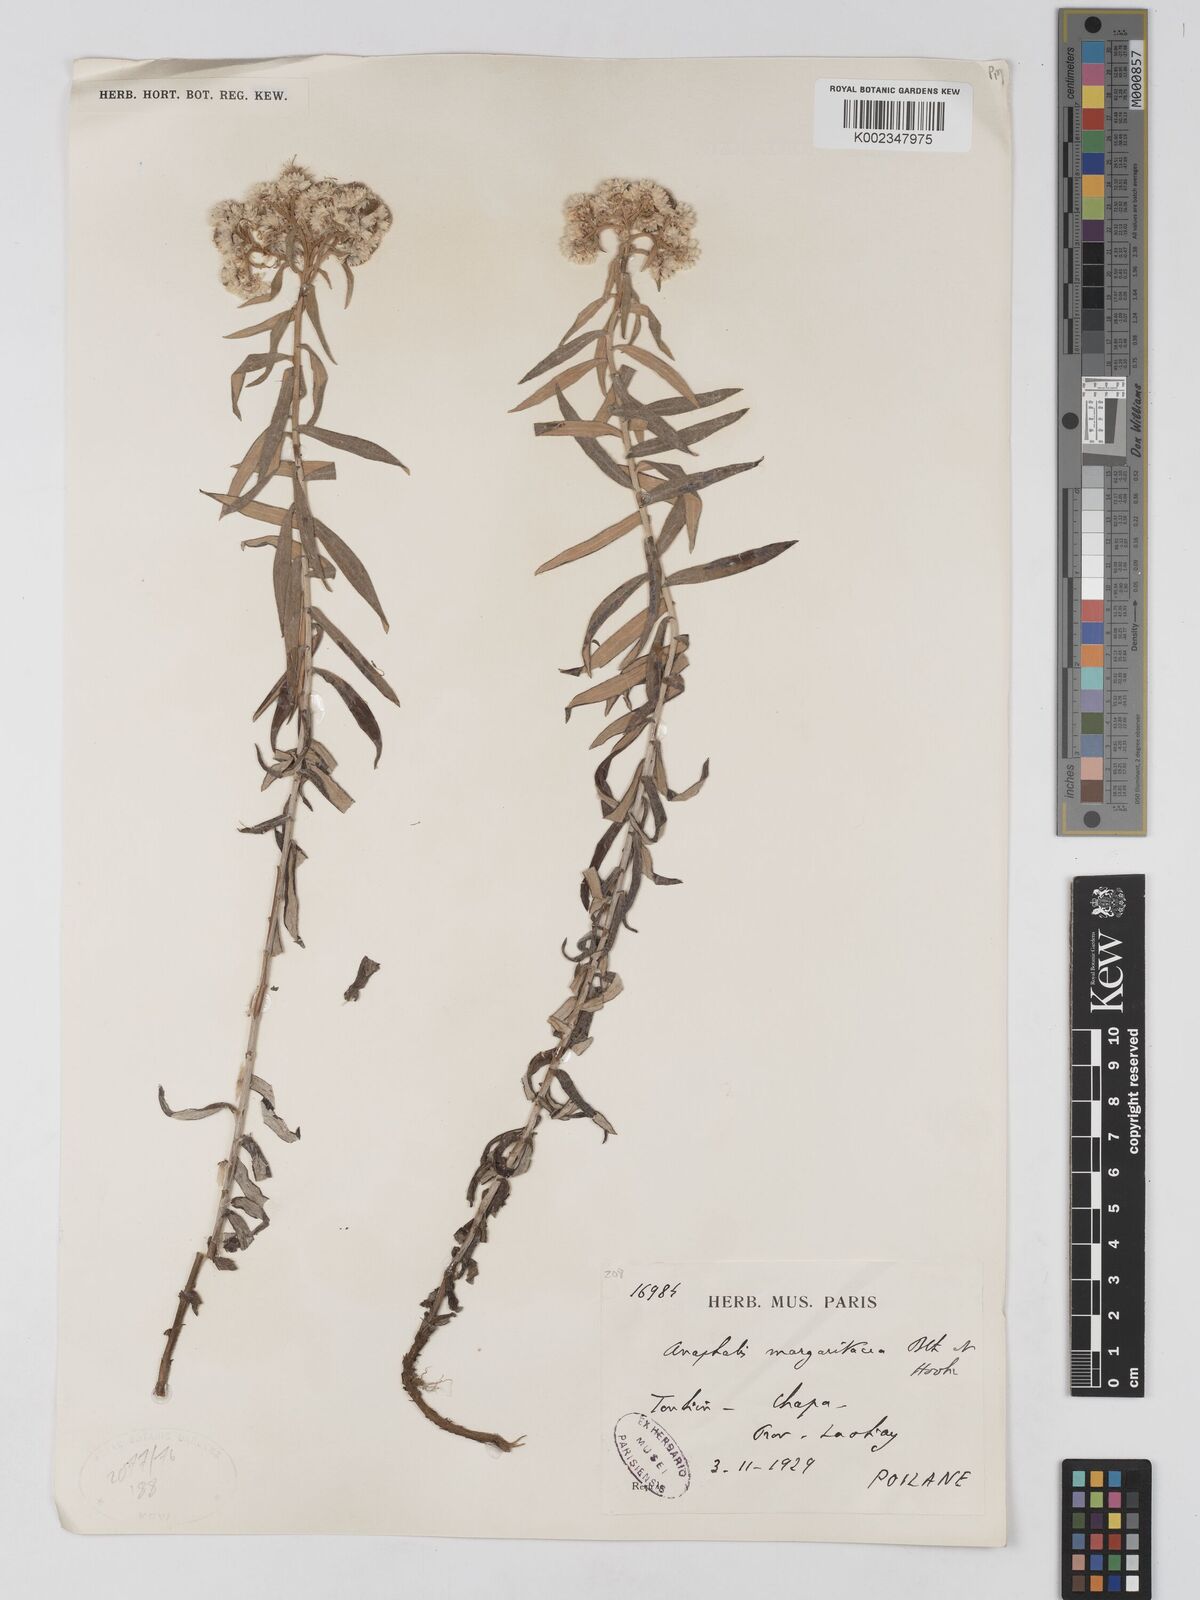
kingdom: Plantae
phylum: Tracheophyta
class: Magnoliopsida
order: Asterales
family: Asteraceae
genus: Anaphalis
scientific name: Anaphalis margaritacea
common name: Pearly everlasting
